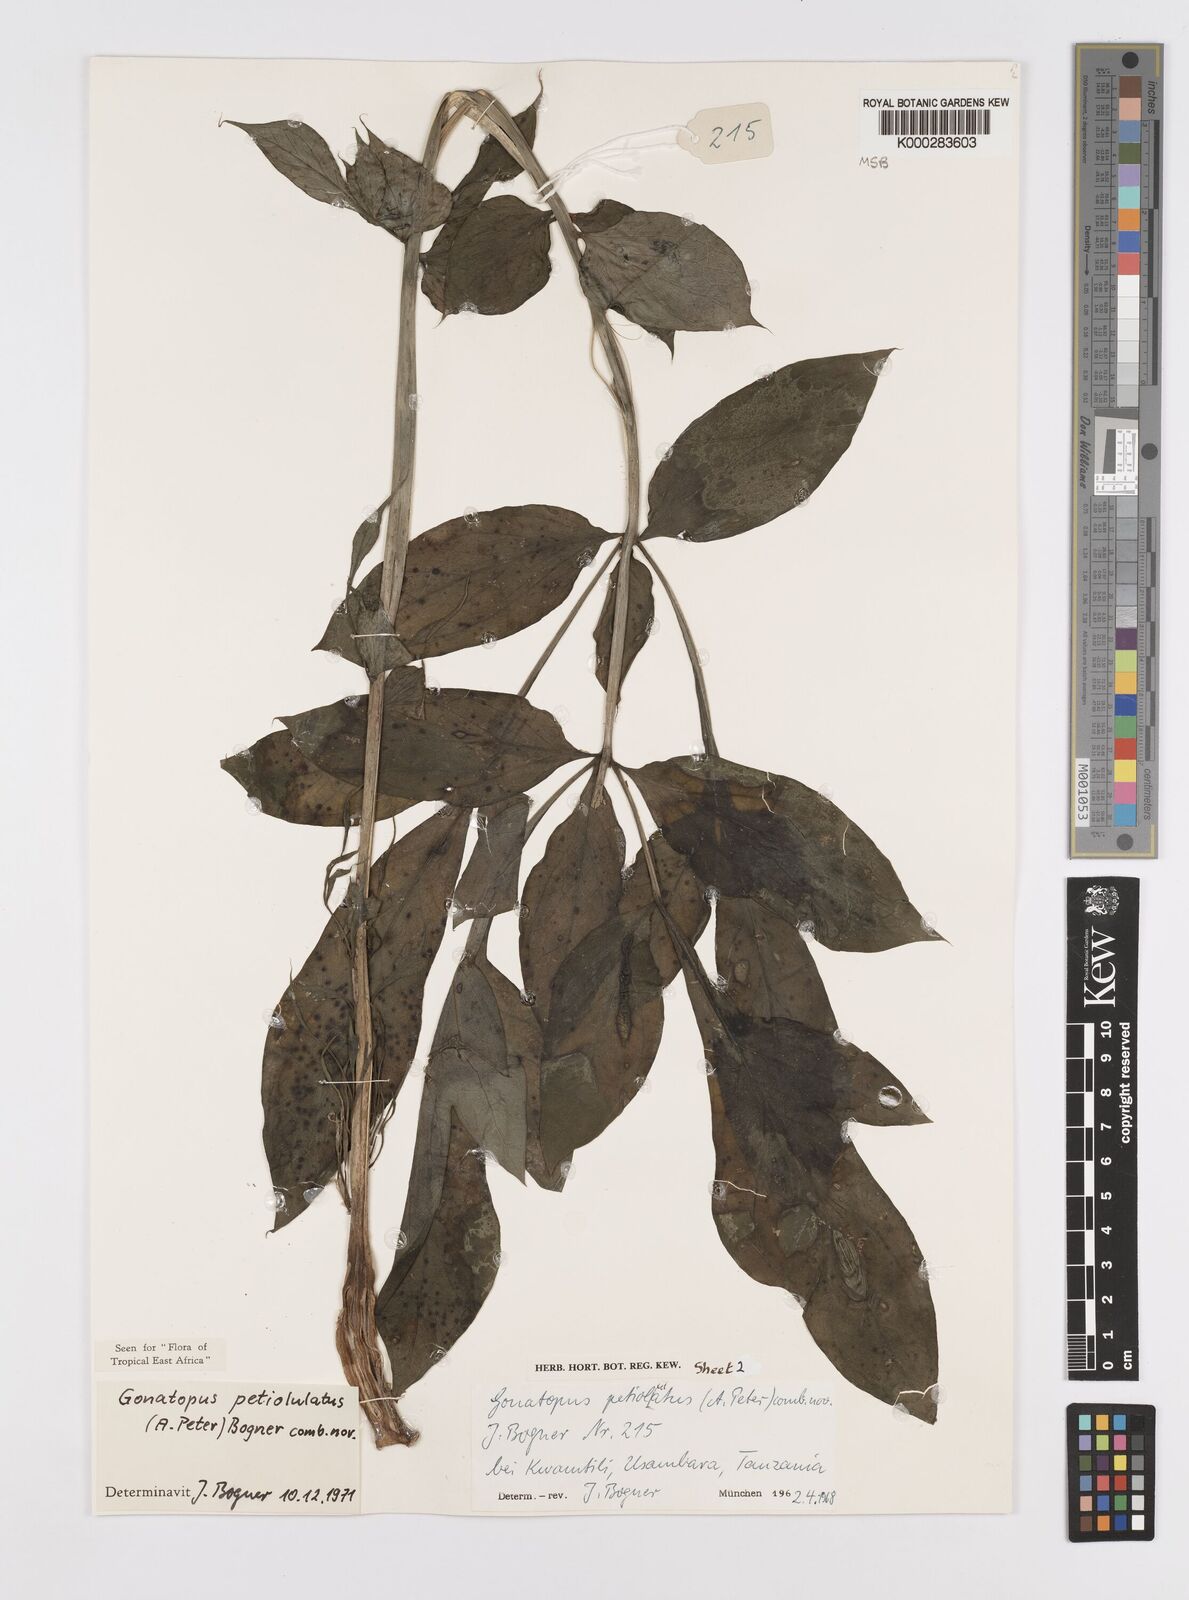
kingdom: Plantae
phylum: Tracheophyta
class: Liliopsida
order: Alismatales
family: Araceae
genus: Gonatopus
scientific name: Gonatopus petiolulatus
